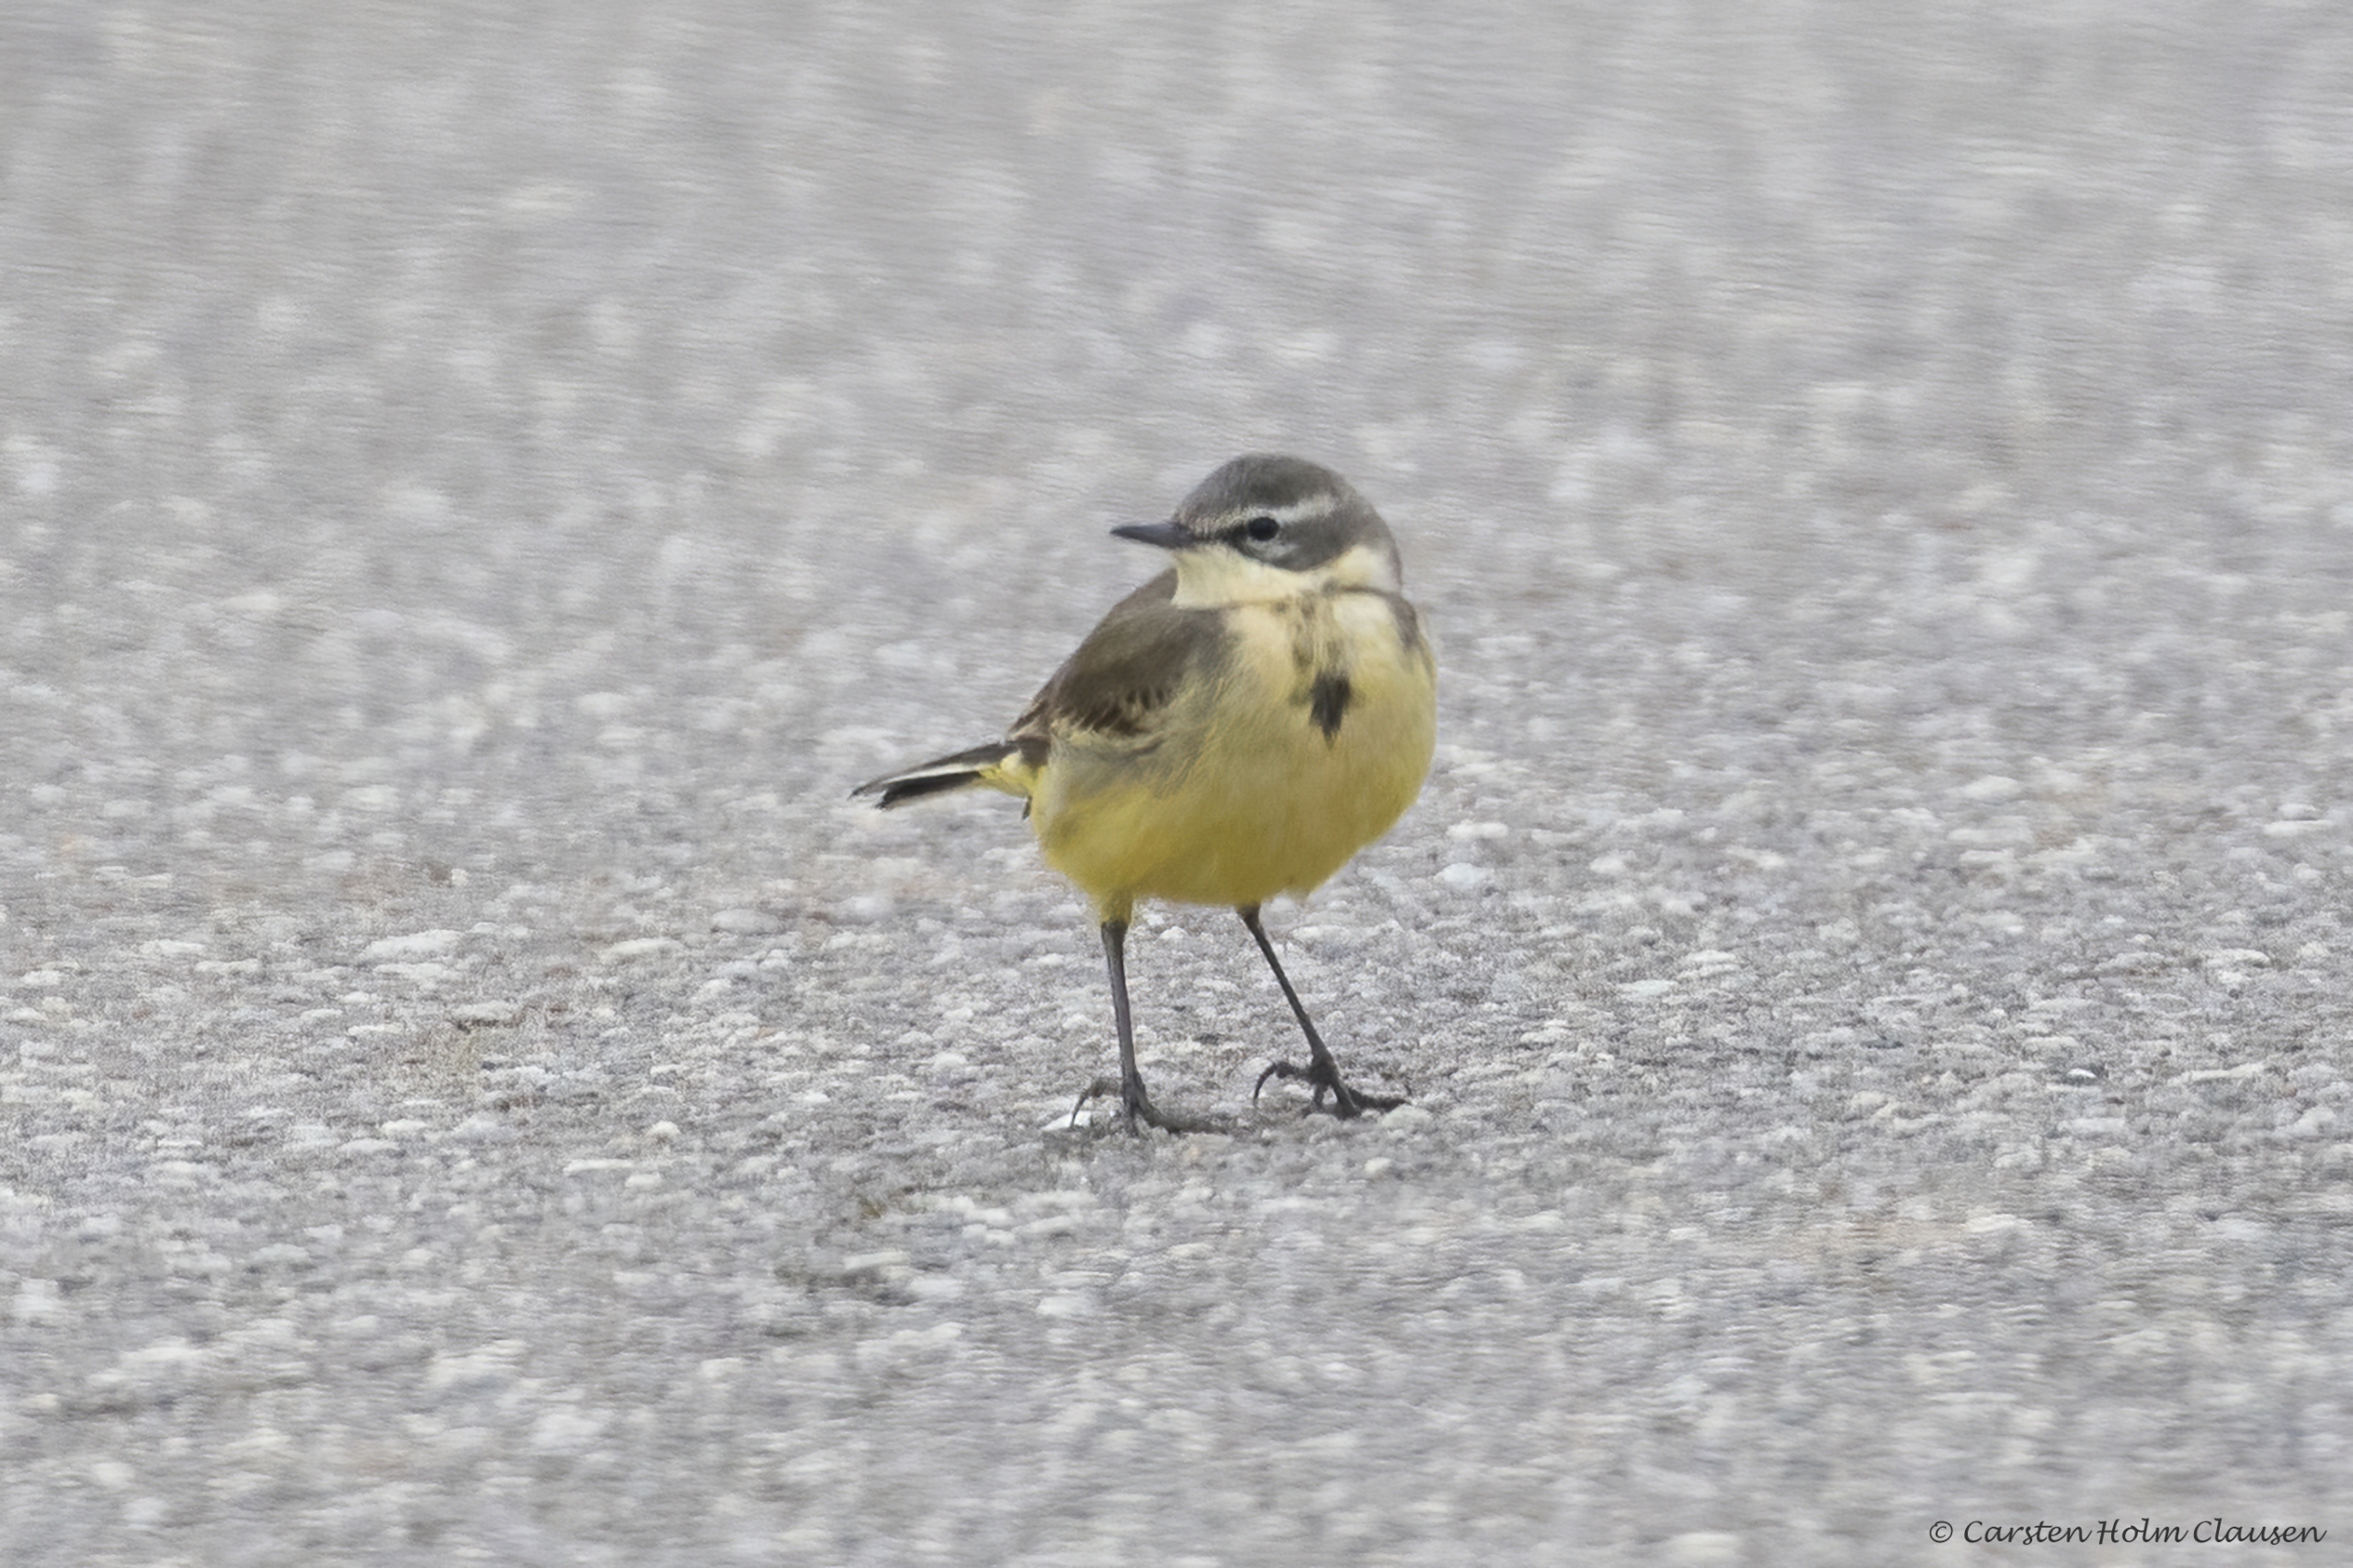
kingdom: Animalia
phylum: Chordata
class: Aves
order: Passeriformes
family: Motacillidae
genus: Motacilla
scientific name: Motacilla flava
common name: Gul vipstjert
